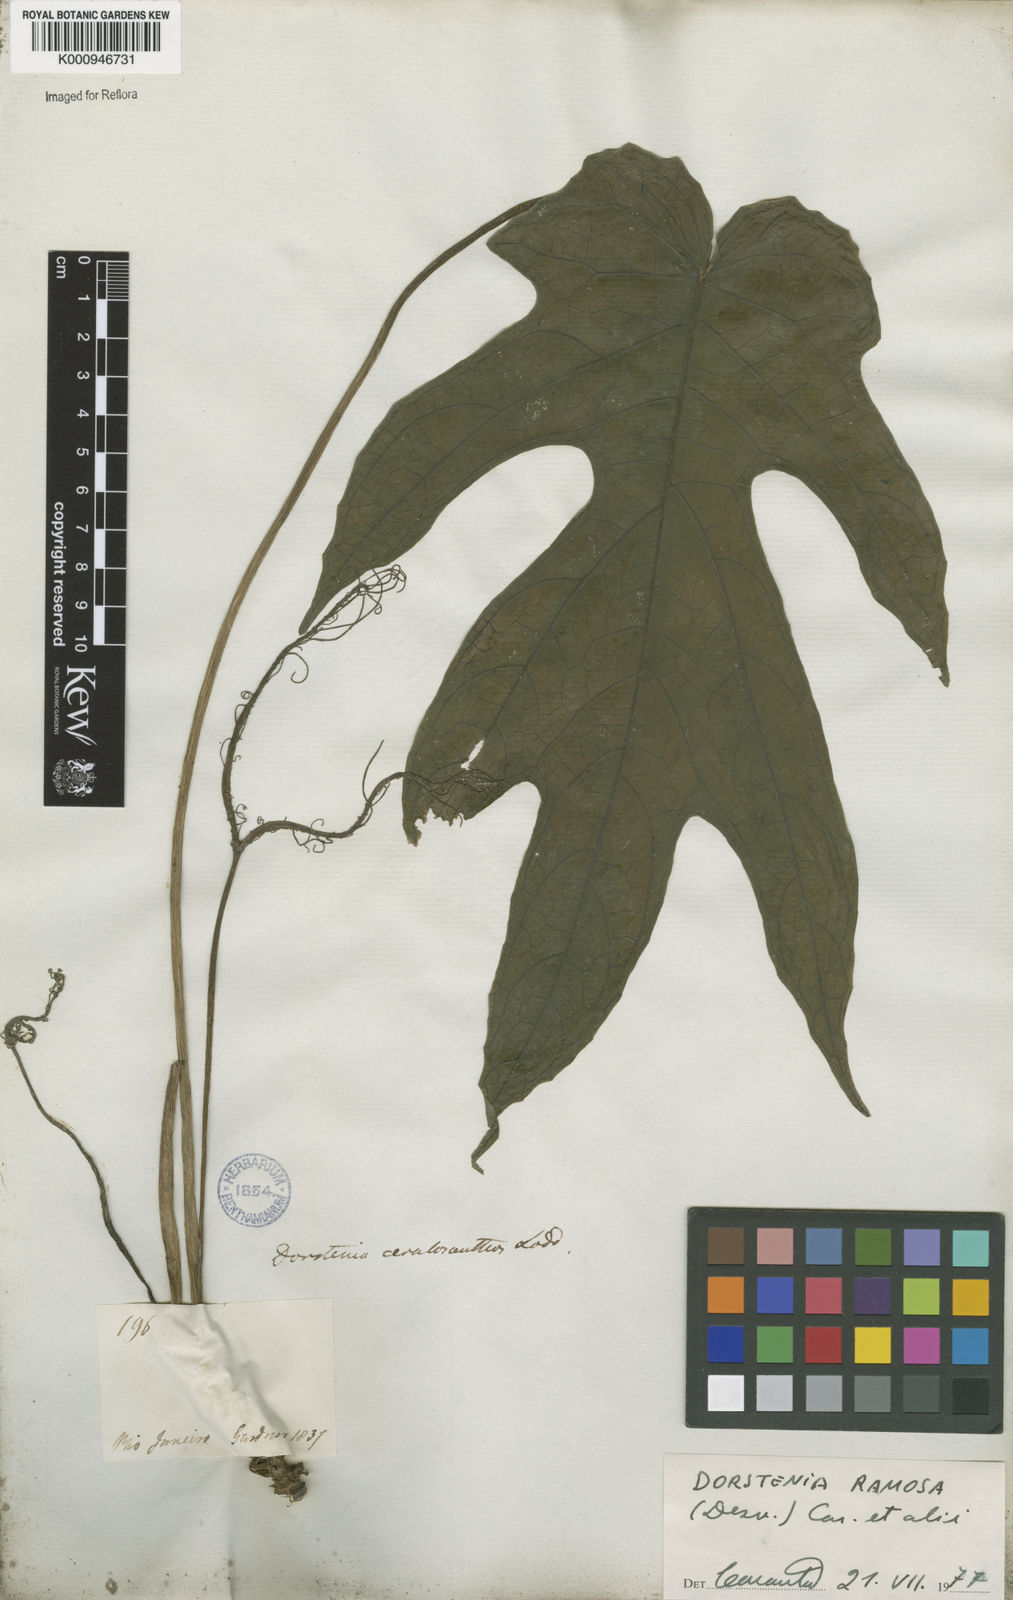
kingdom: Plantae
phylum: Tracheophyta
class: Magnoliopsida
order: Rosales
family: Moraceae
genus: Dorstenia
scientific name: Dorstenia ramosa
